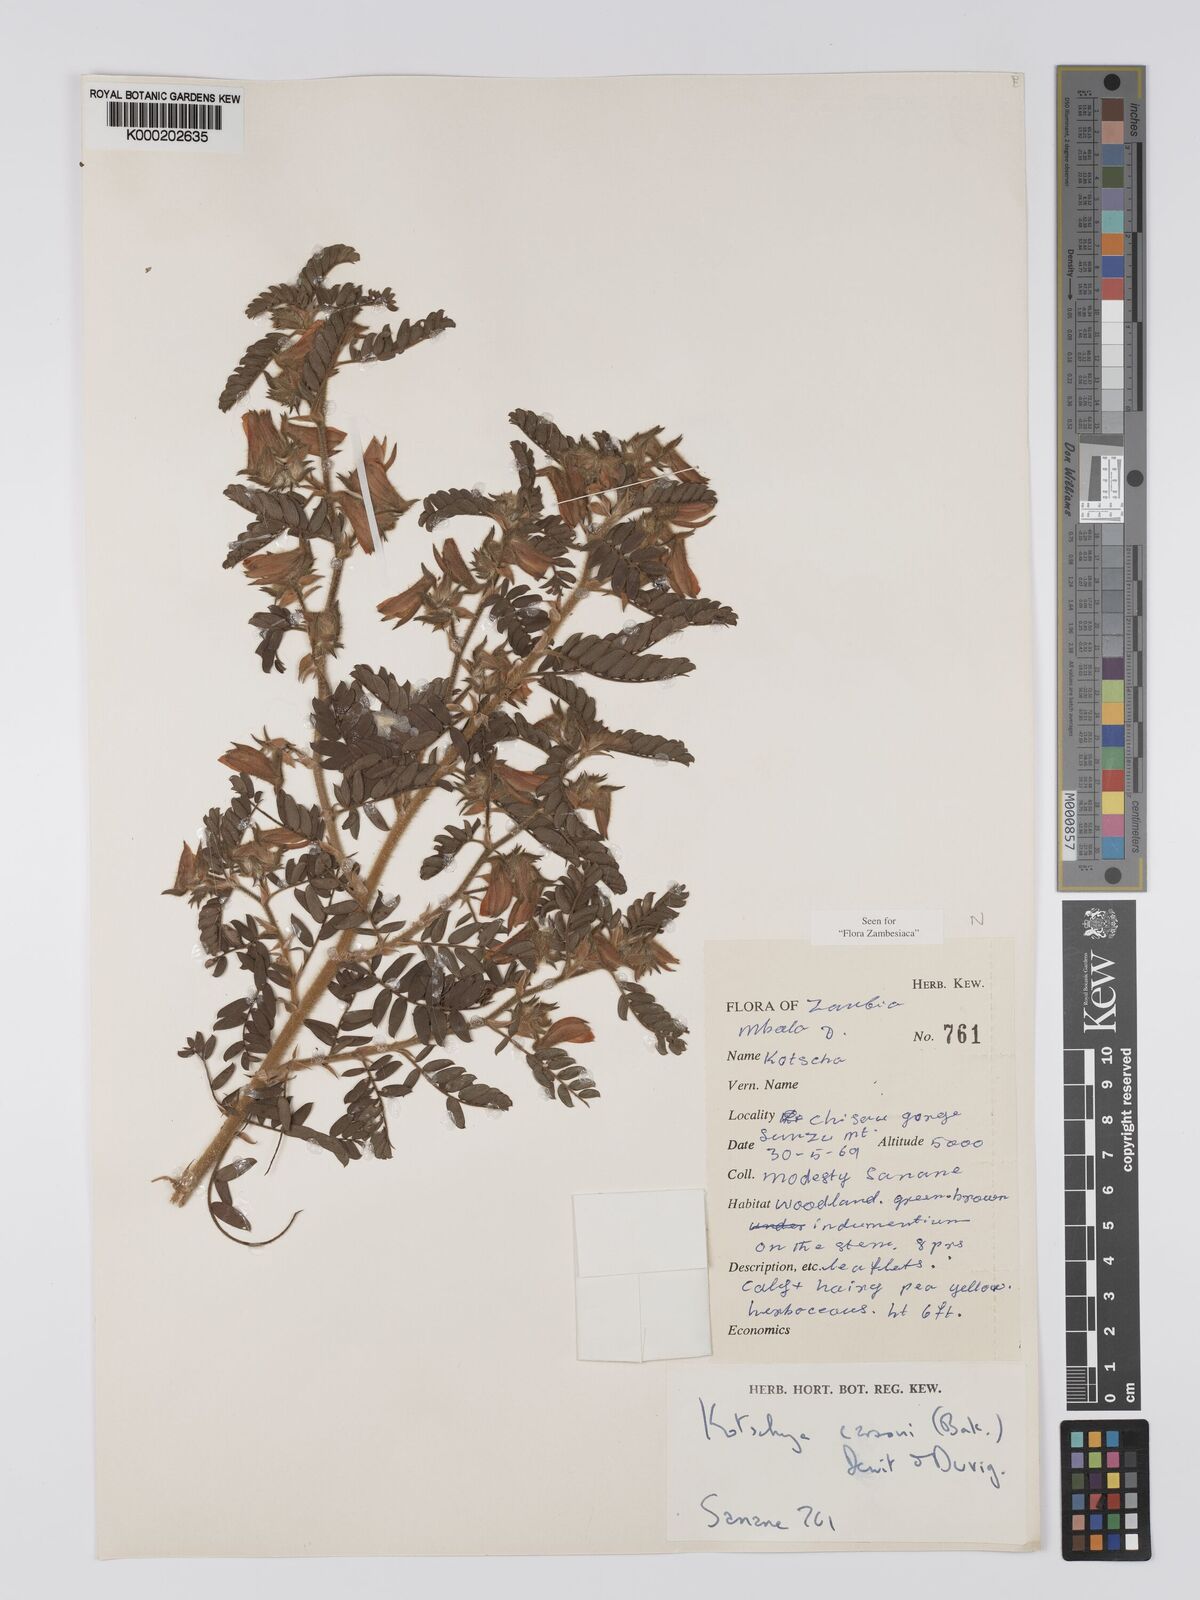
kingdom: Plantae
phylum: Tracheophyta
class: Magnoliopsida
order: Fabales
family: Fabaceae
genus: Kotschya
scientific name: Kotschya carsonii
